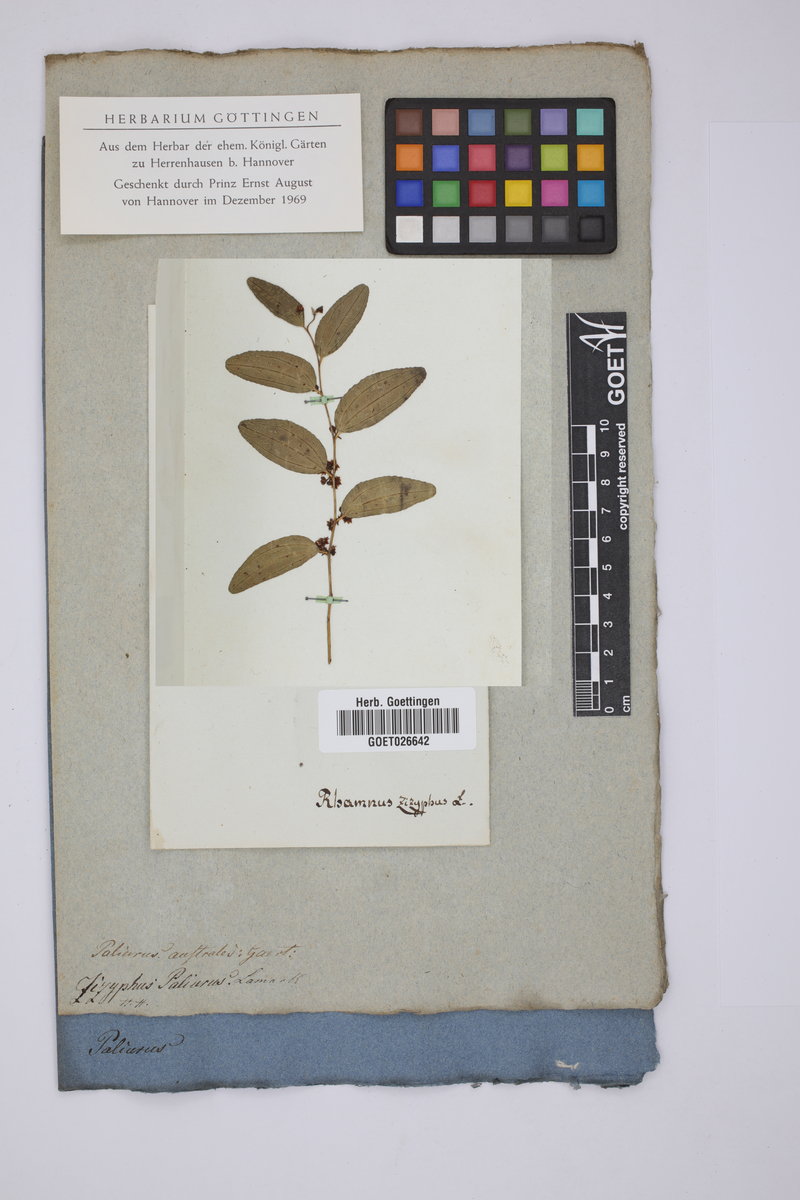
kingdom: Plantae
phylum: Tracheophyta
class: Magnoliopsida
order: Rosales
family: Rhamnaceae
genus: Ziziphus
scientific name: Ziziphus jujuba
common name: Jujube red date
